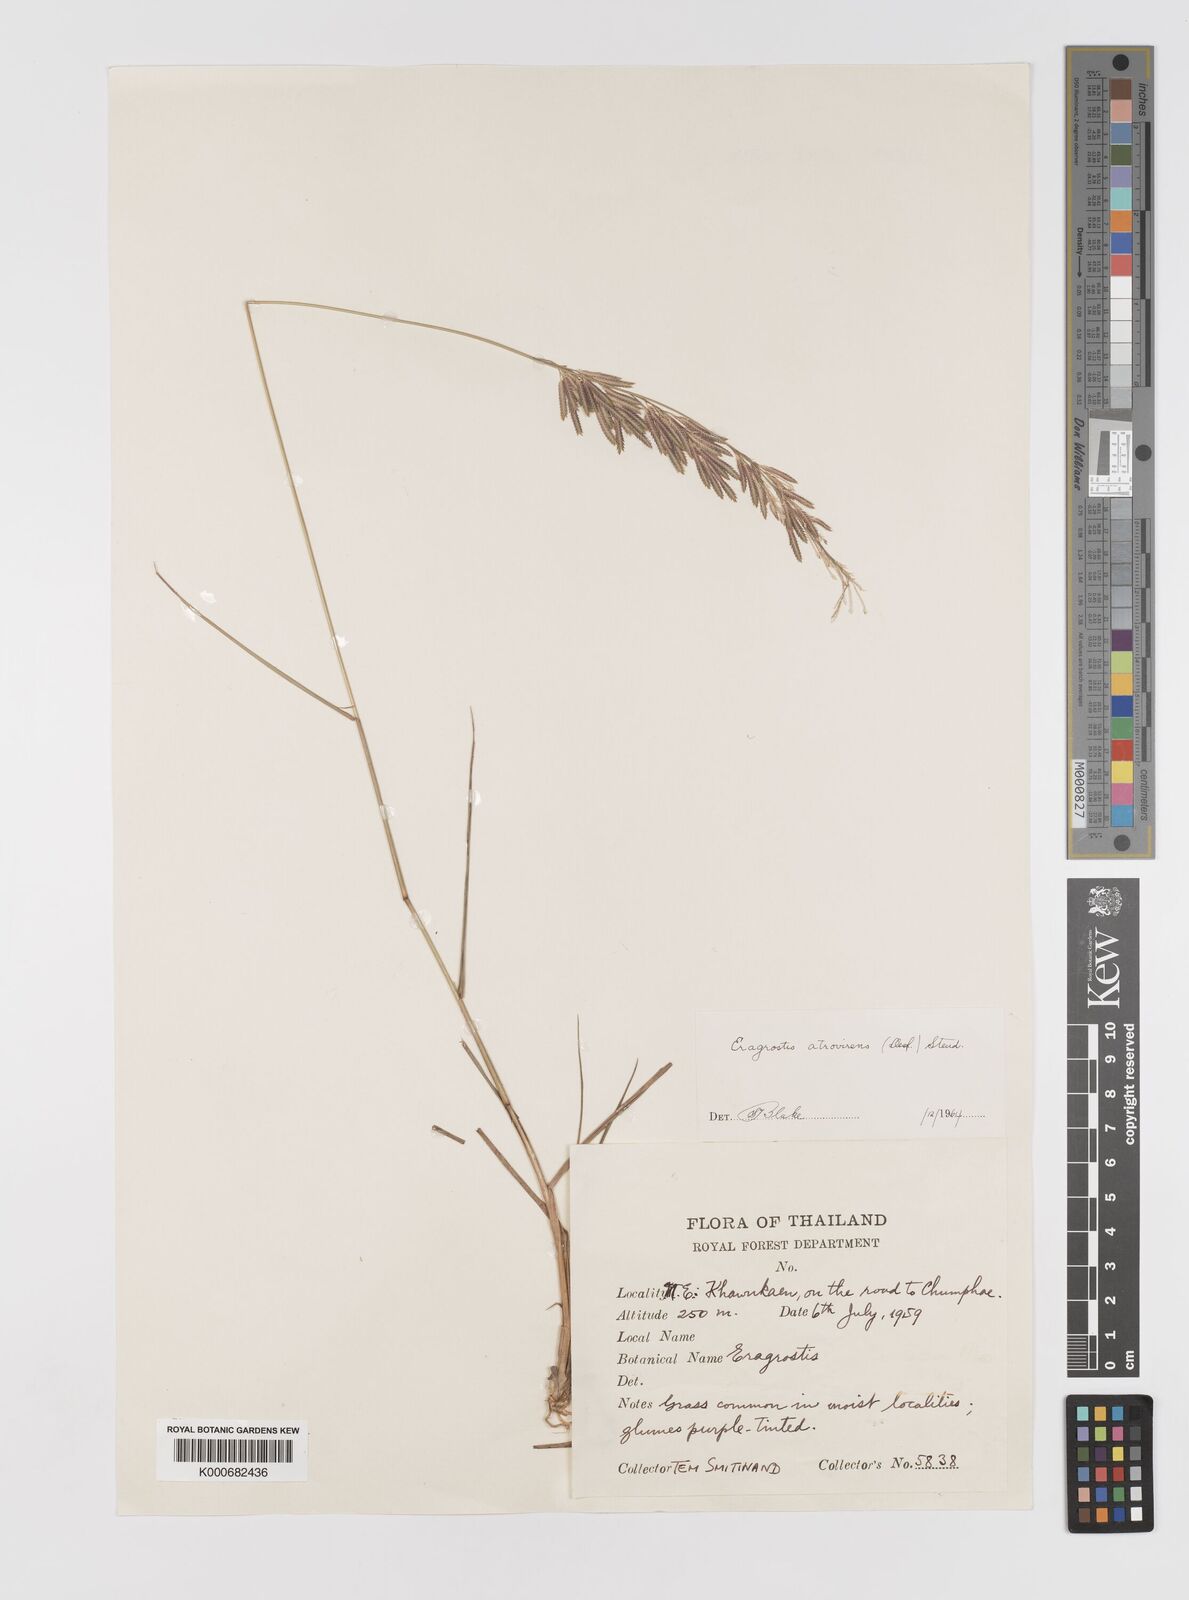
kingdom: Plantae
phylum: Tracheophyta
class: Liliopsida
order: Poales
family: Poaceae
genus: Eragrostis
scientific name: Eragrostis
